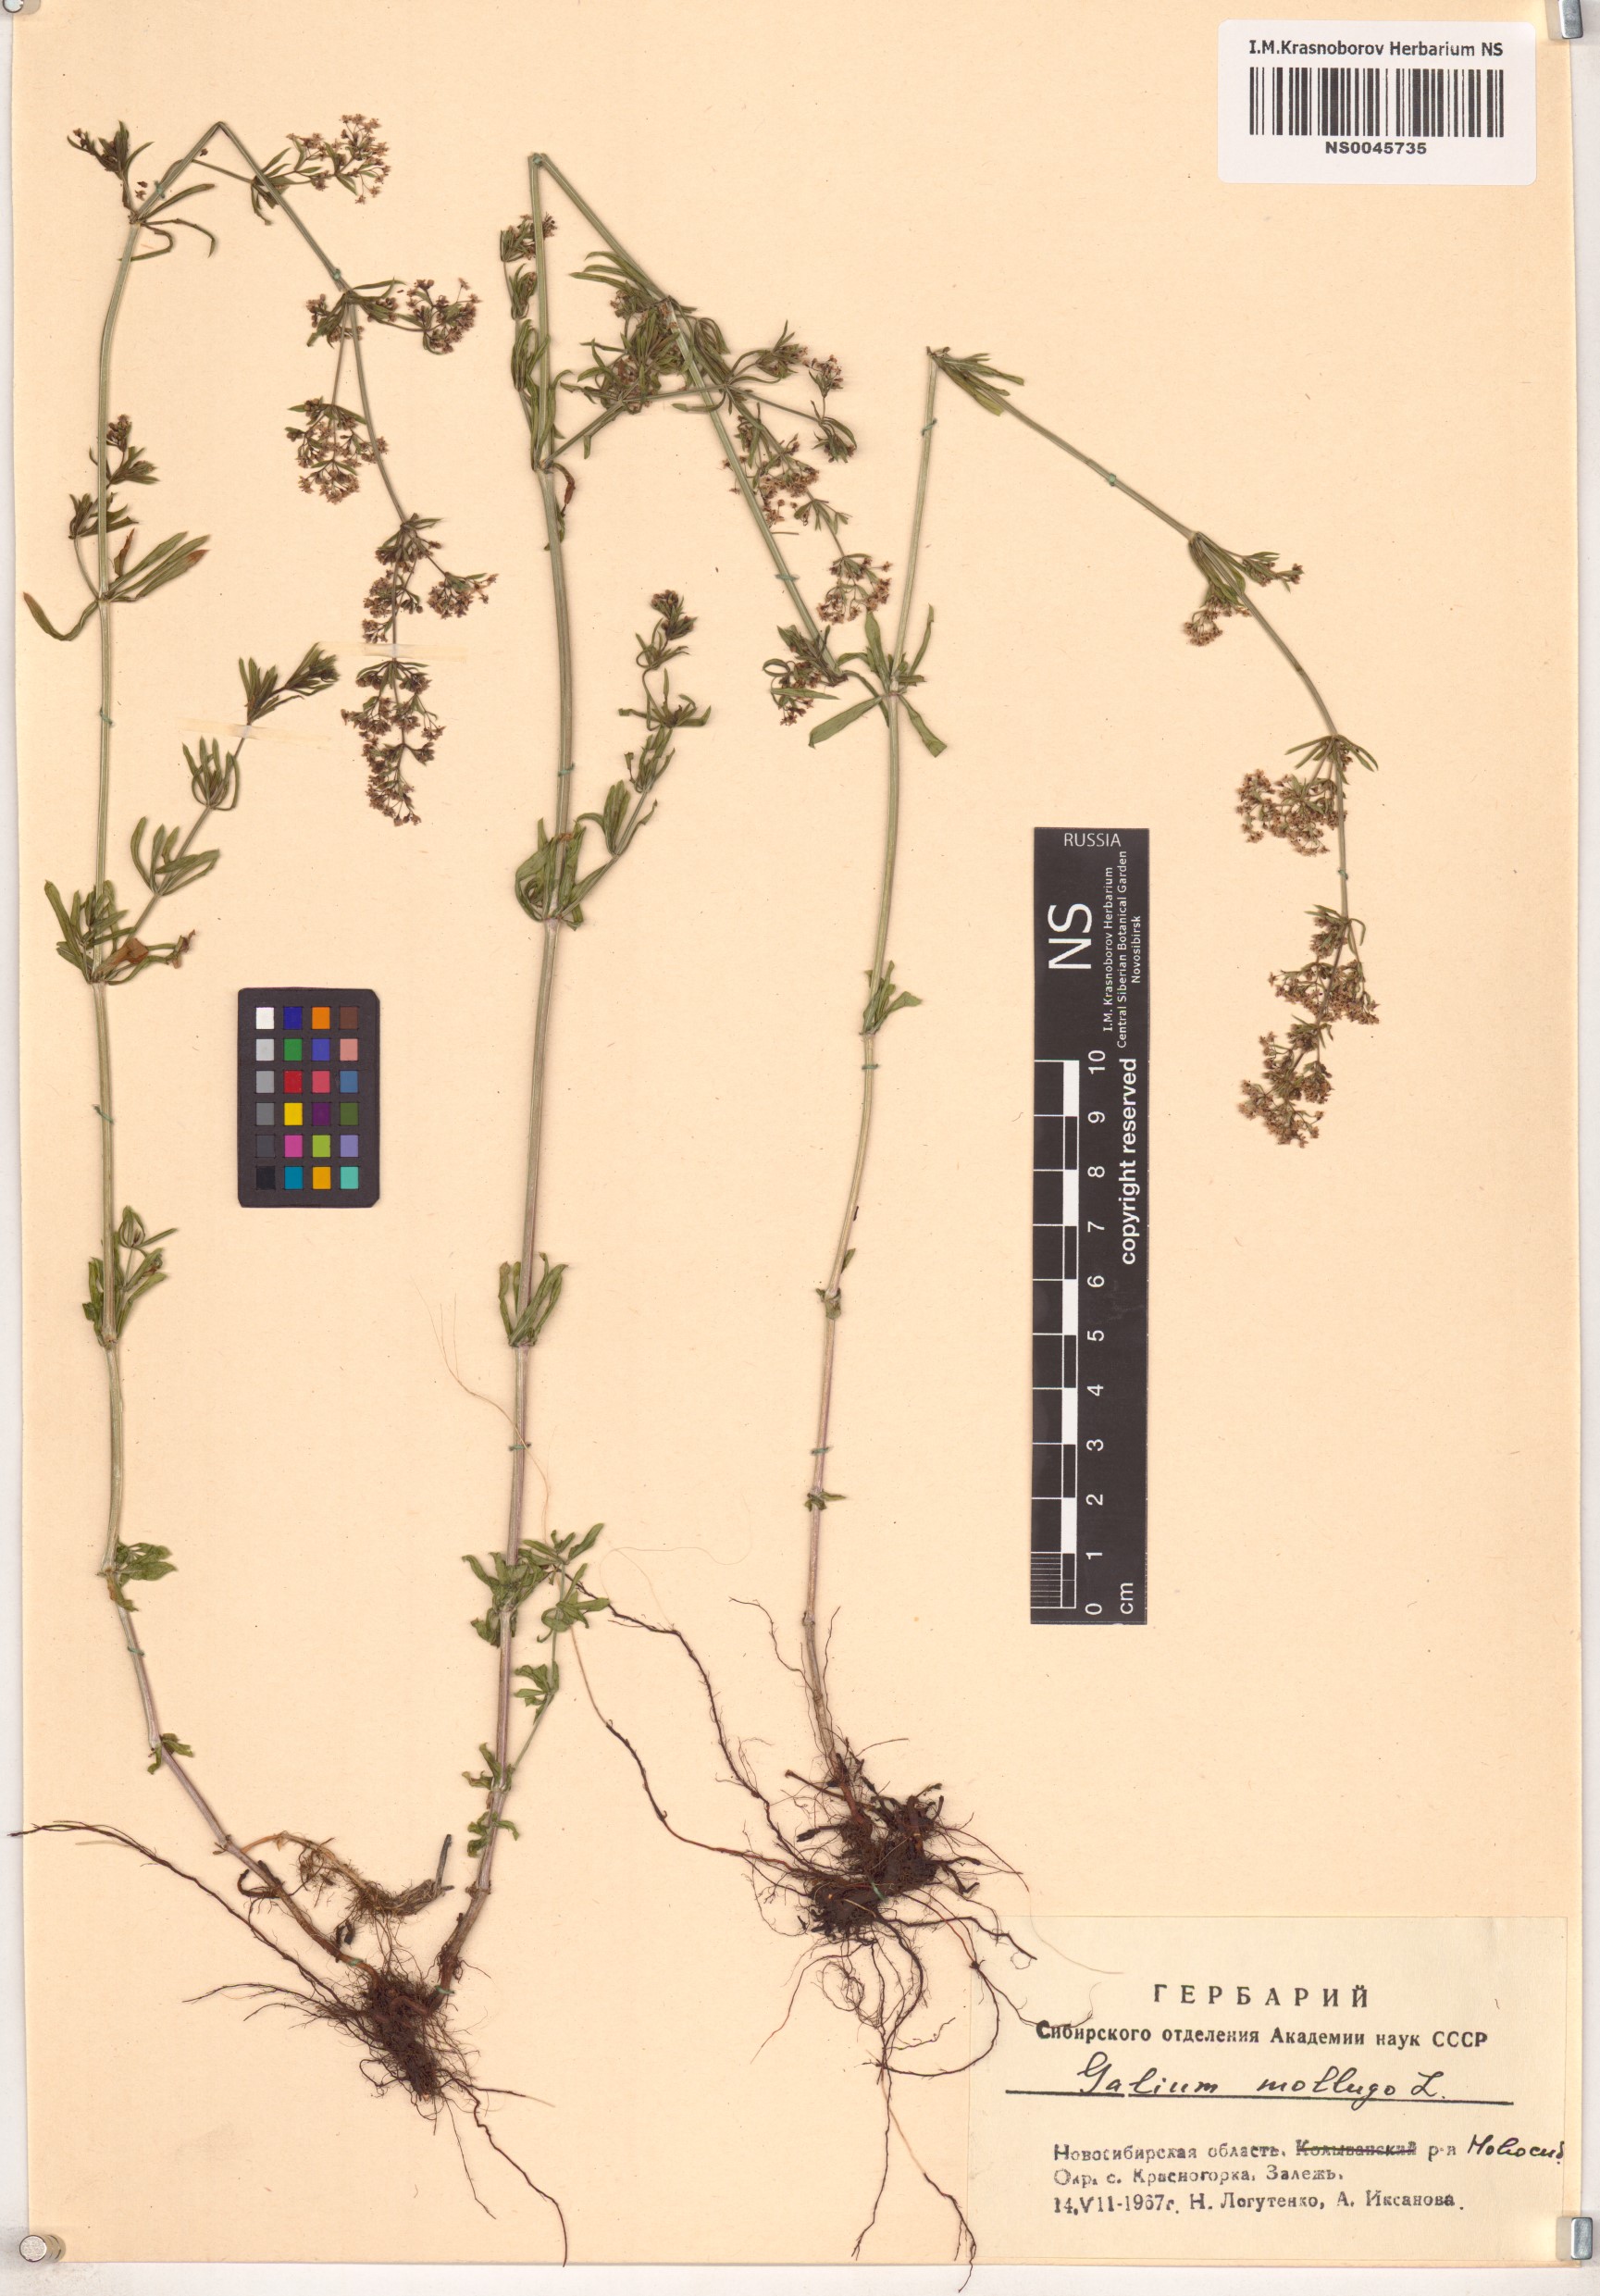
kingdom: Plantae
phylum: Tracheophyta
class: Magnoliopsida
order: Gentianales
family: Rubiaceae
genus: Galium
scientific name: Galium mollugo
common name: Hedge bedstraw
